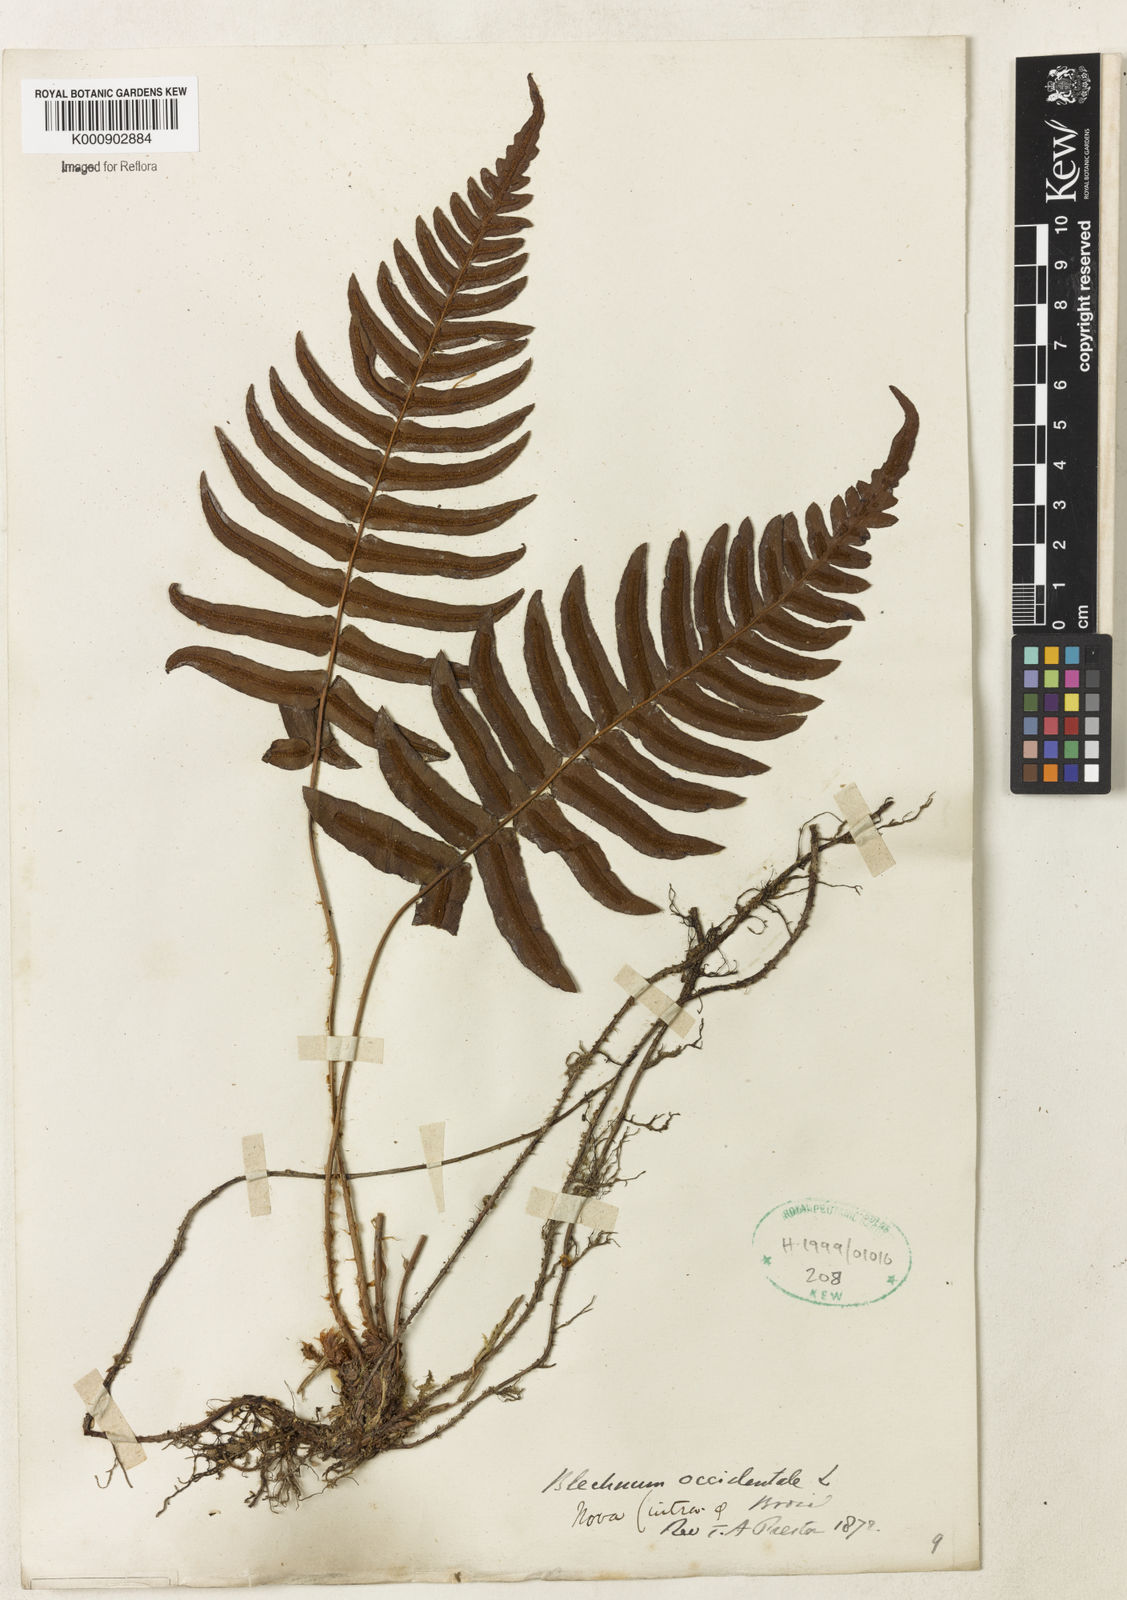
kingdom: Plantae
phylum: Tracheophyta
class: Polypodiopsida
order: Polypodiales
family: Blechnaceae
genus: Blechnum
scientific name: Blechnum occidentale
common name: Hammock fern
